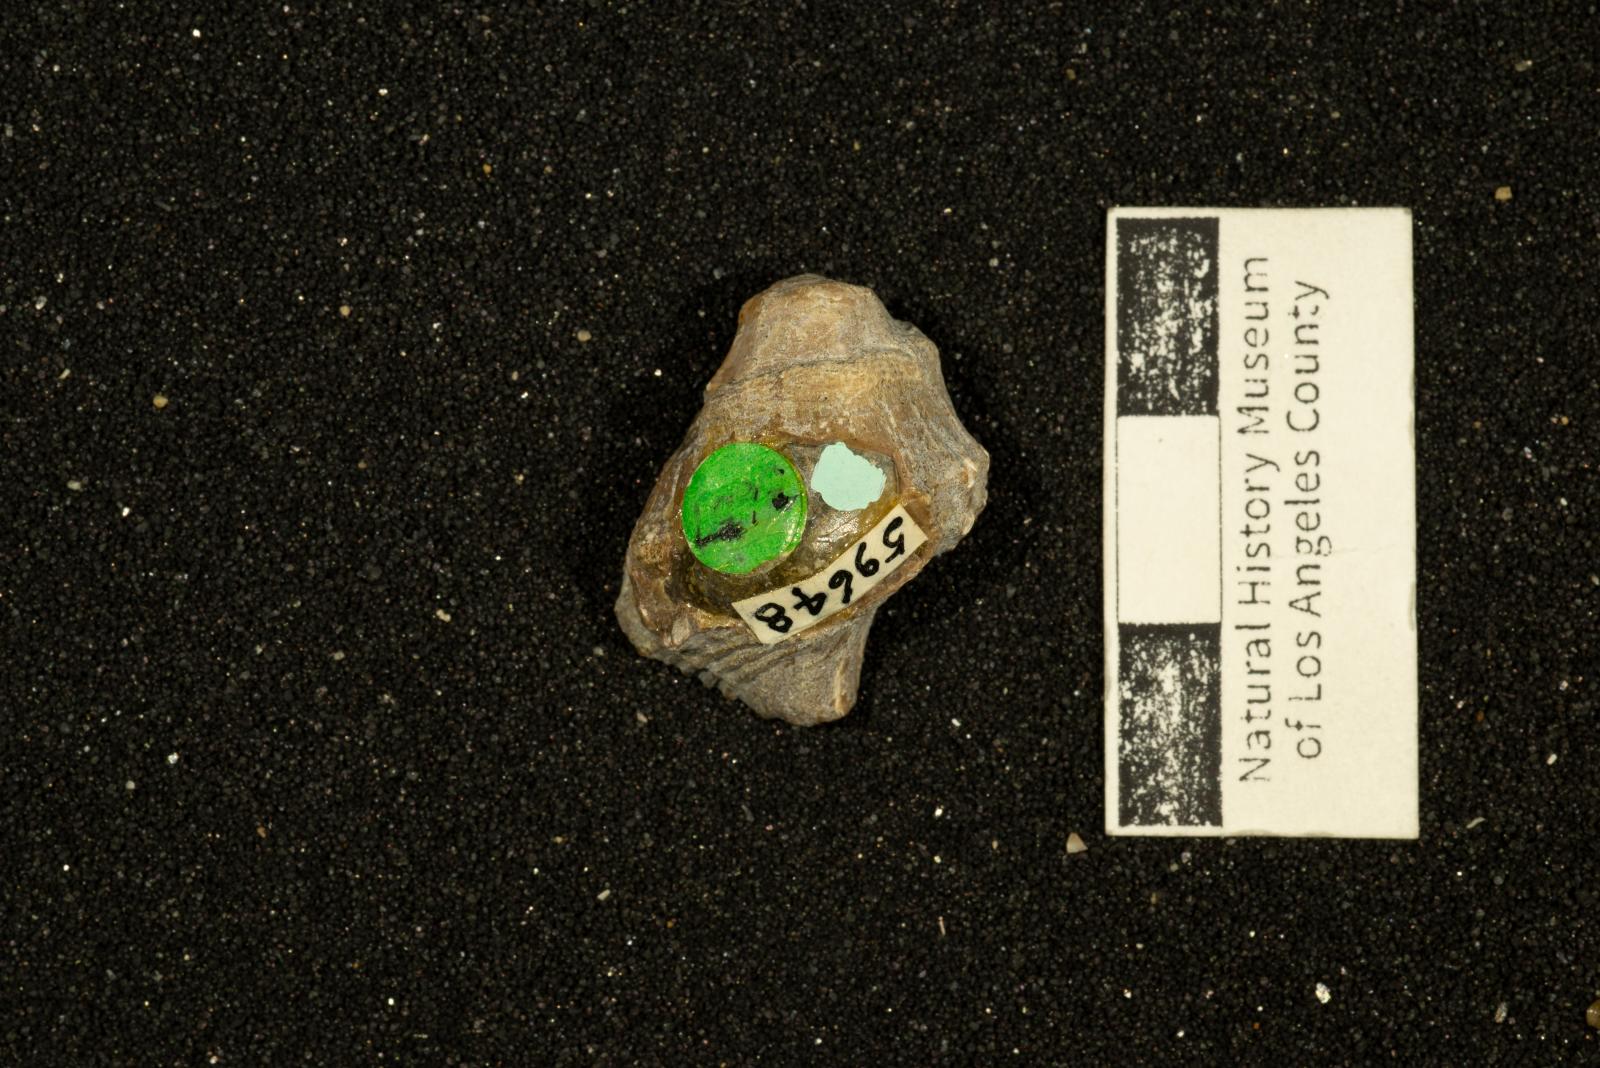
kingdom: Animalia
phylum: Mollusca
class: Gastropoda
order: Neogastropoda
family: Perissityidae
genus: Perissitys
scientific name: Perissitys Perissolax brevirostris
